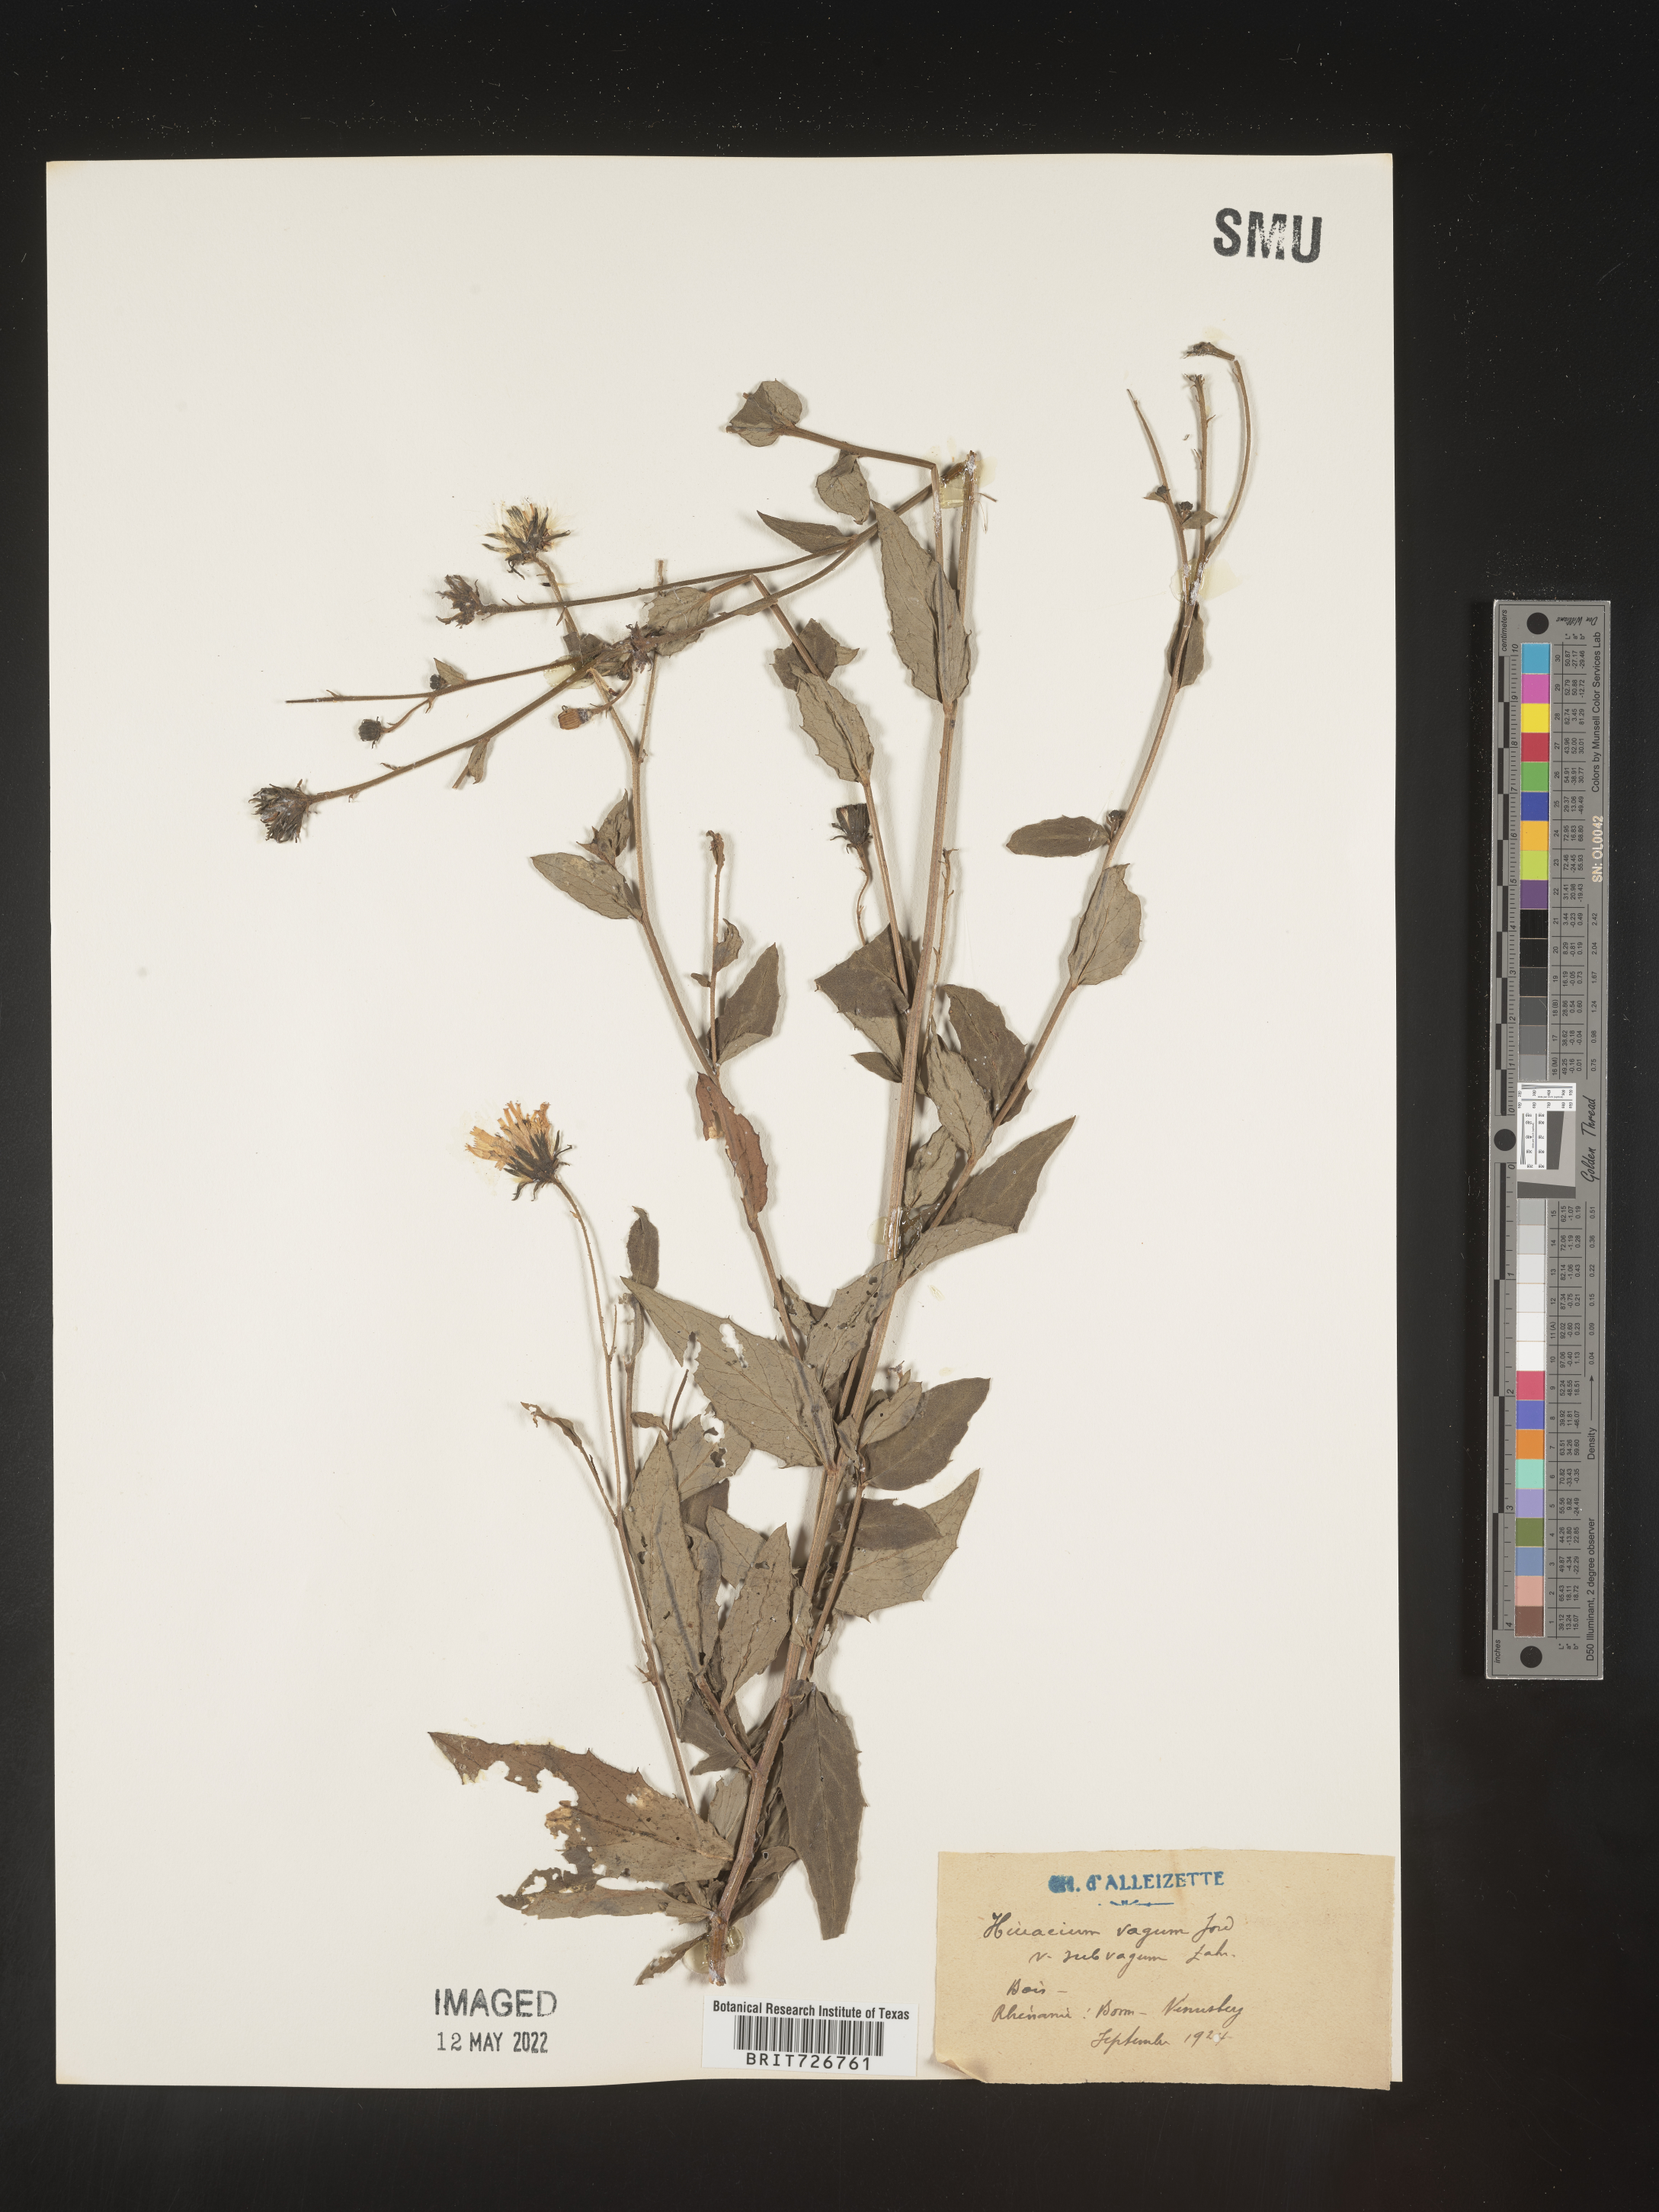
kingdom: Plantae
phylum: Tracheophyta
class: Magnoliopsida
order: Asterales
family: Asteraceae
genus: Hieracium
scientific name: Hieracium
